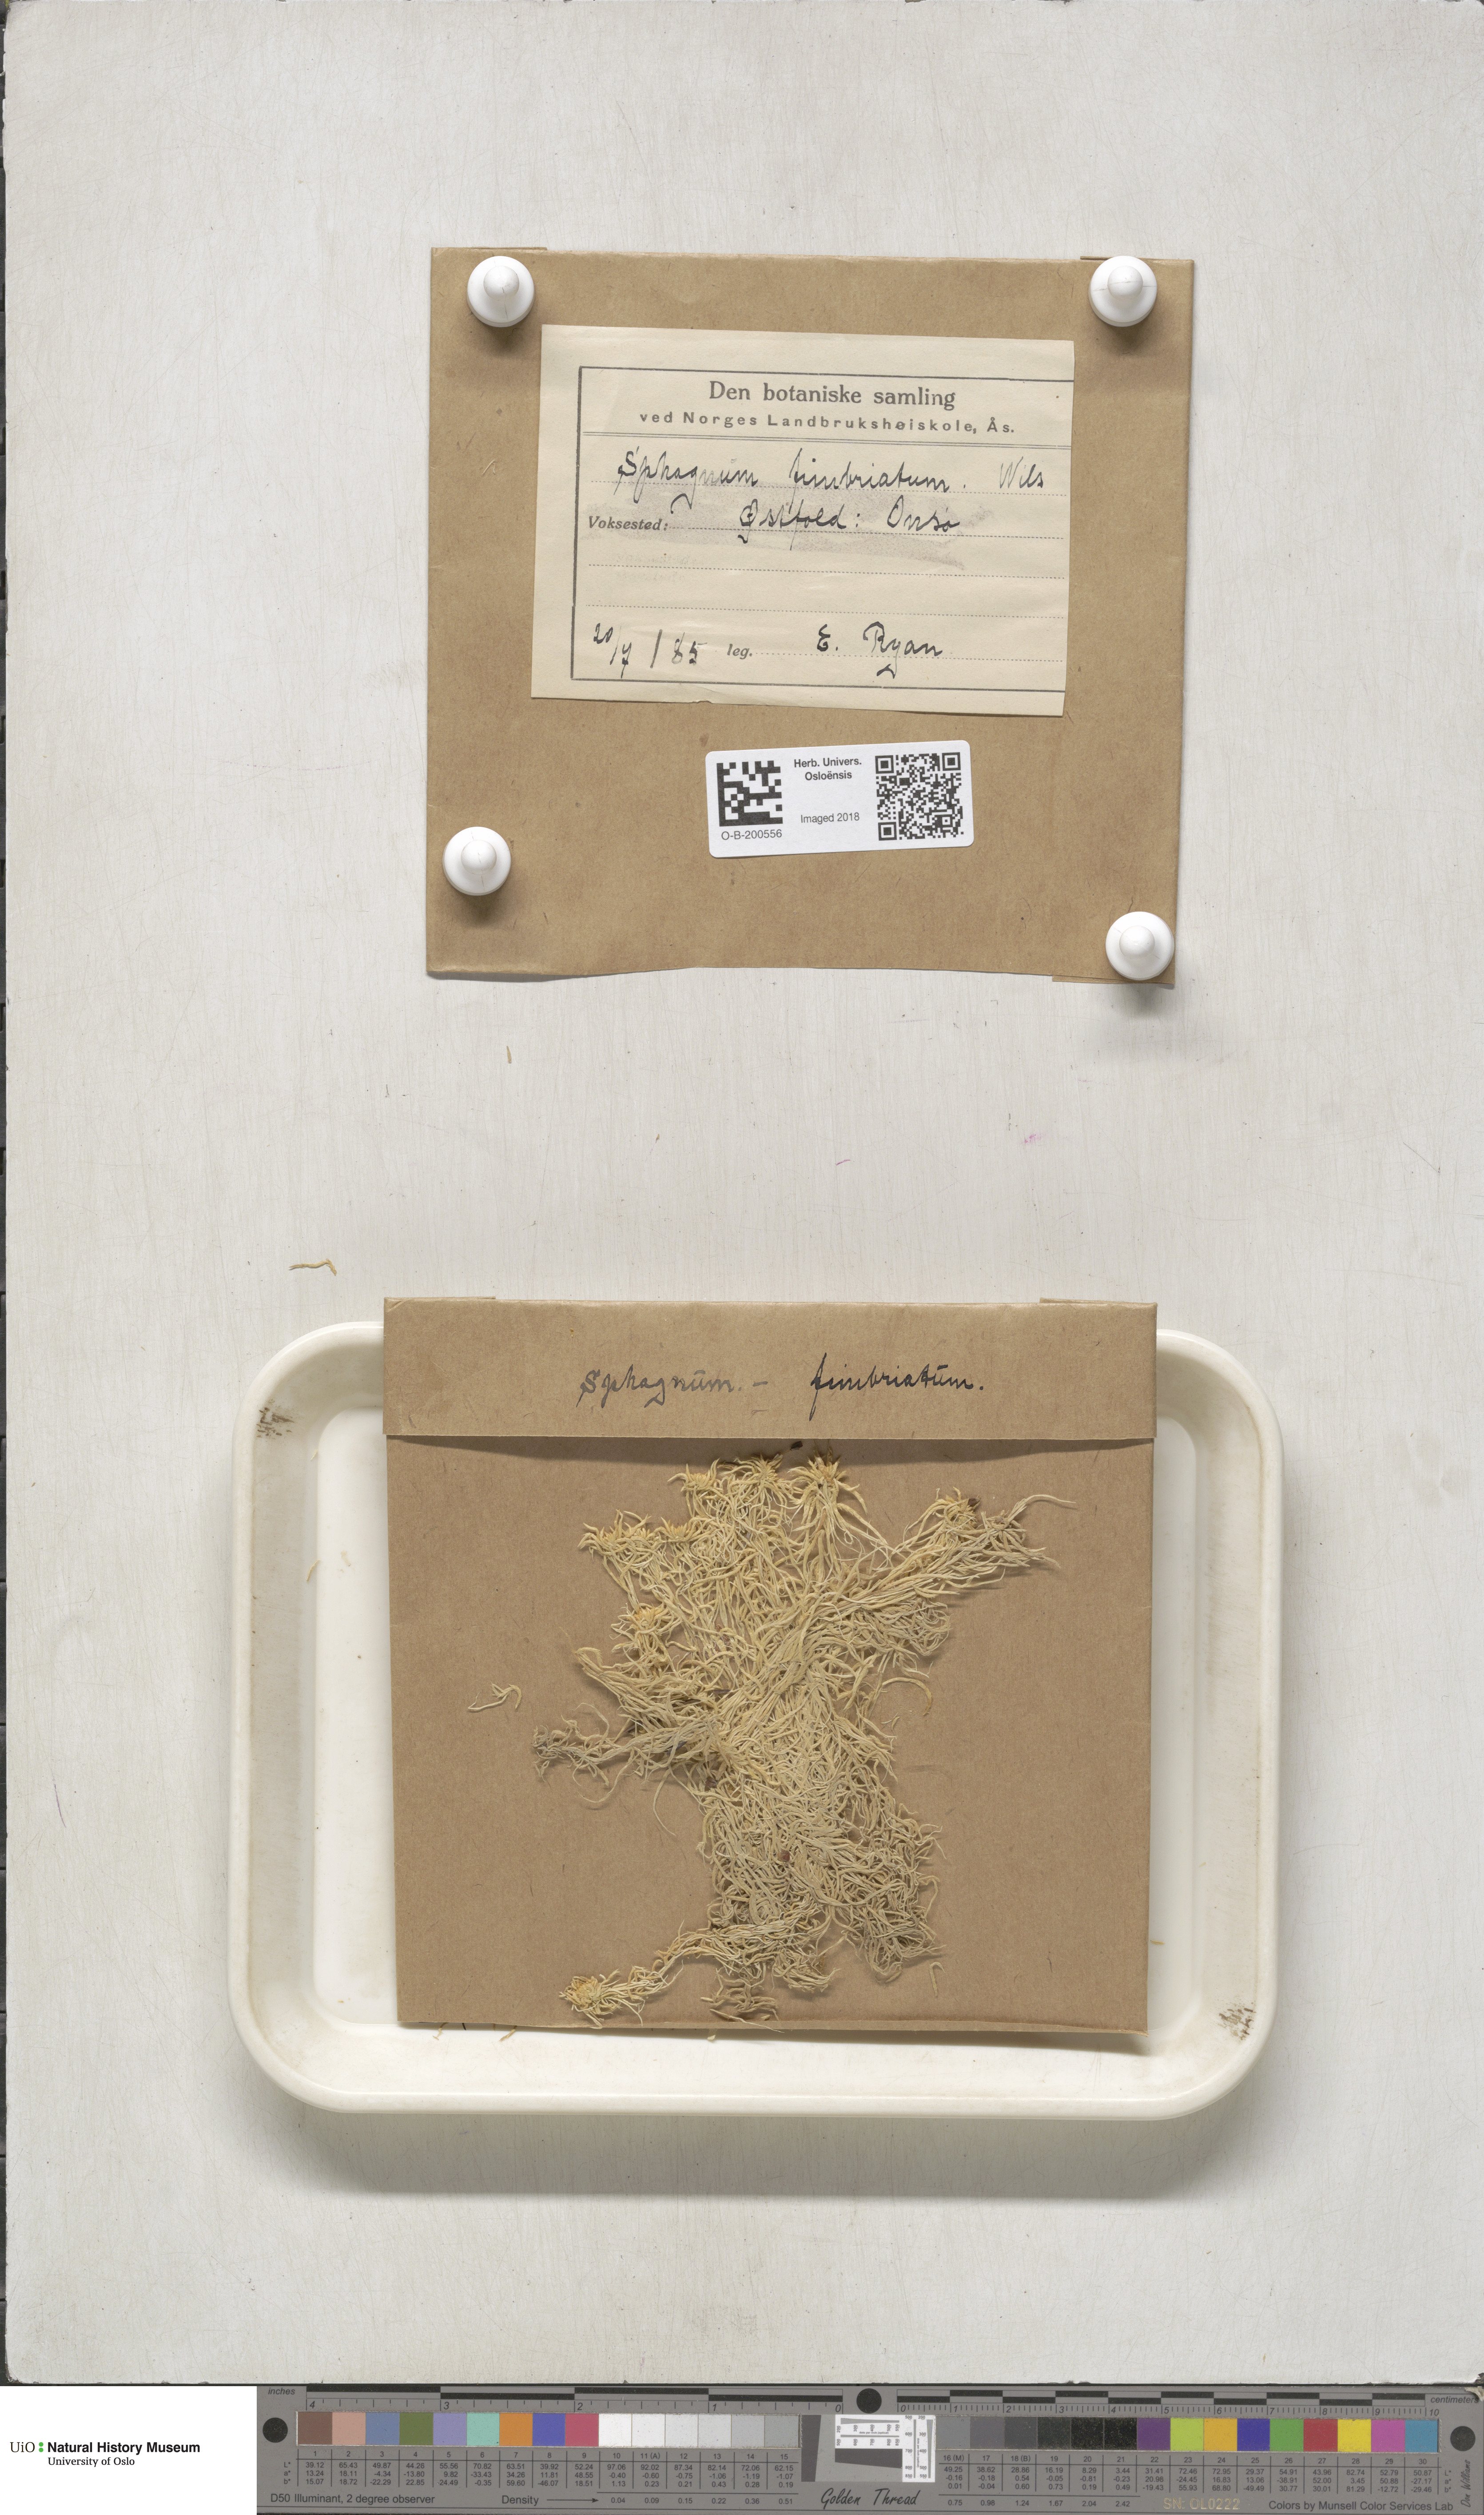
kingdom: Plantae
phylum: Bryophyta
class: Sphagnopsida
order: Sphagnales
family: Sphagnaceae
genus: Sphagnum
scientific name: Sphagnum fimbriatum
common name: Fringed peat moss
